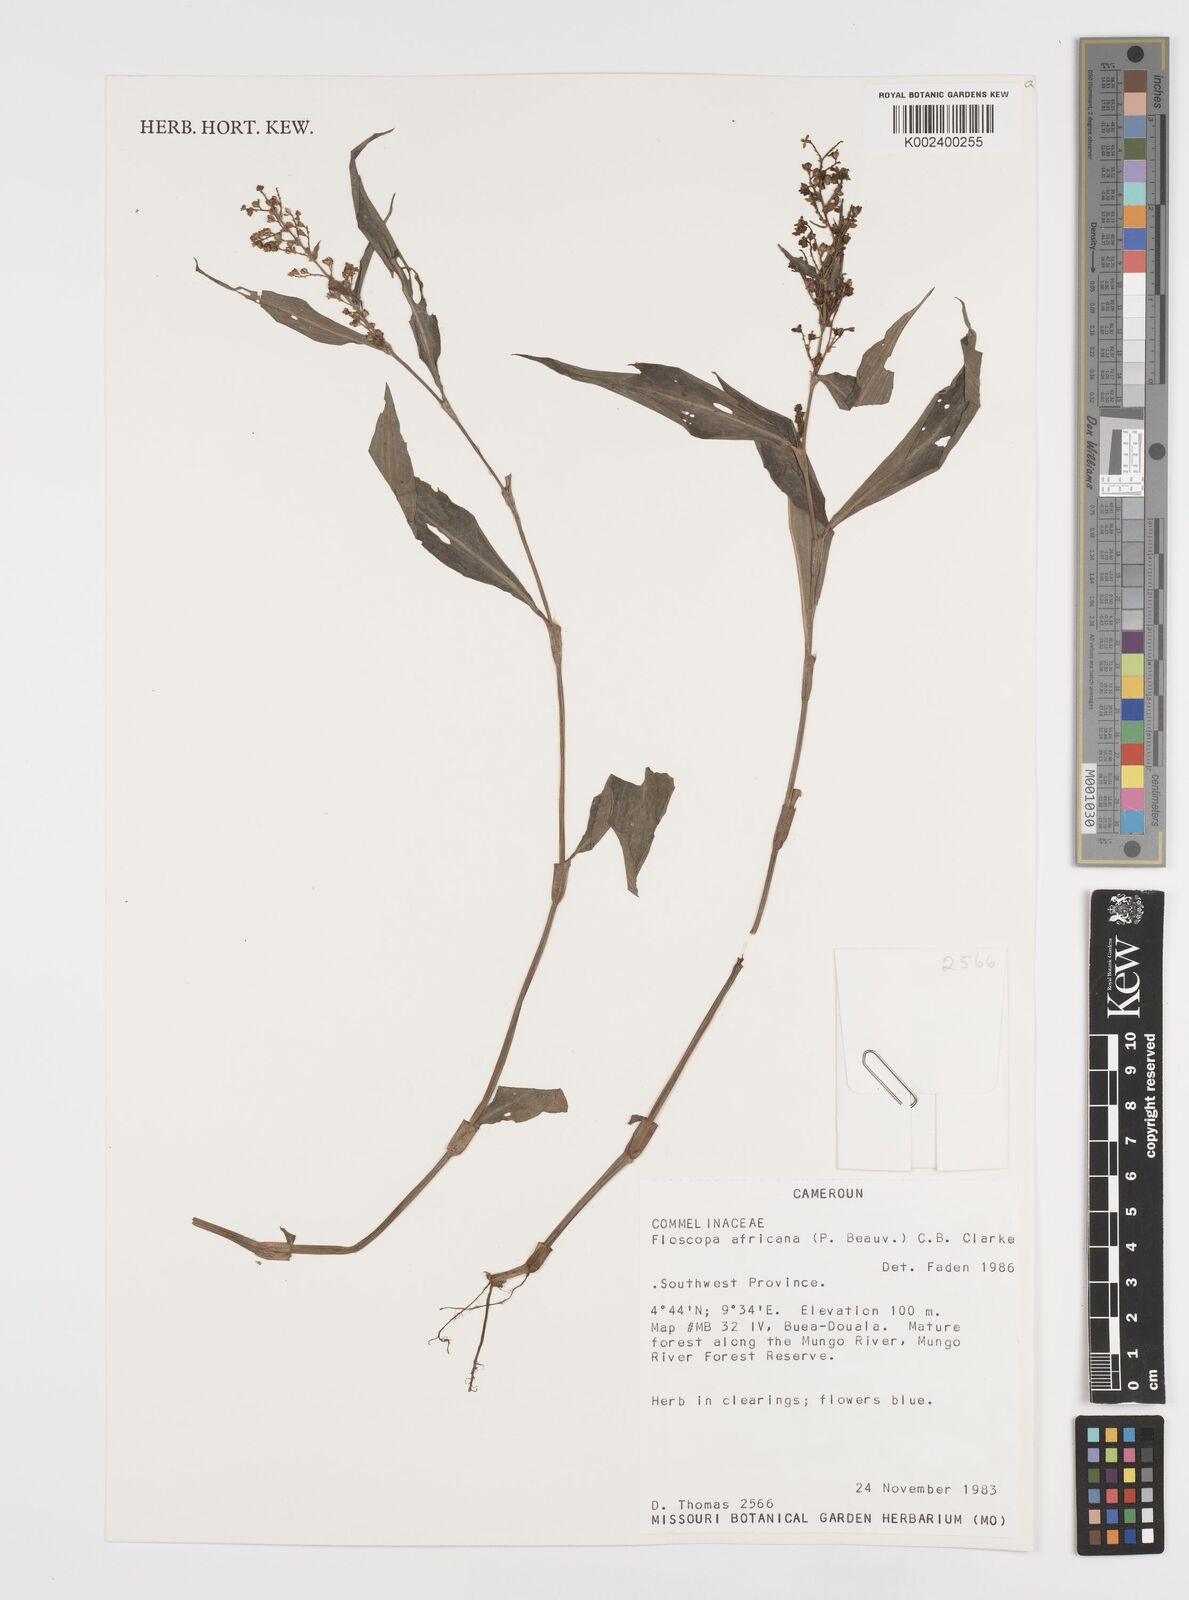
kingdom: Plantae
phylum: Tracheophyta
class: Liliopsida
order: Commelinales
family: Commelinaceae
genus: Floscopa
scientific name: Floscopa africana
